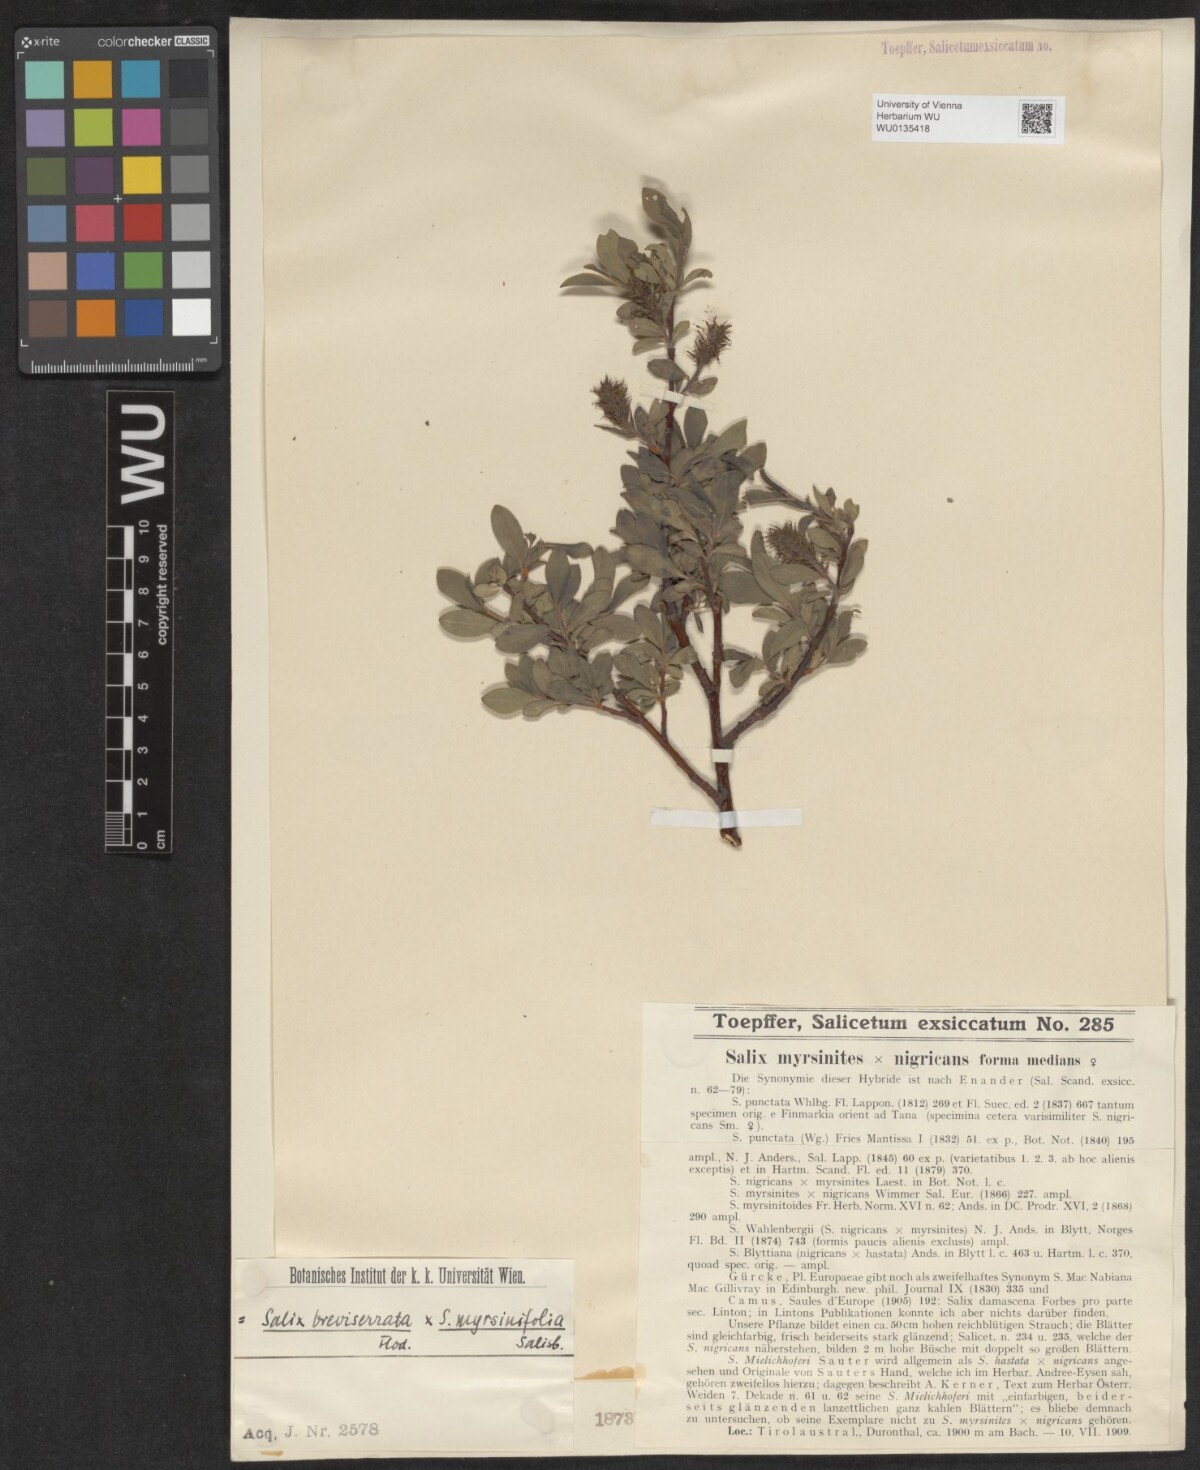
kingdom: Plantae
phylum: Tracheophyta
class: Magnoliopsida
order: Malpighiales
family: Salicaceae
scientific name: Salicaceae
